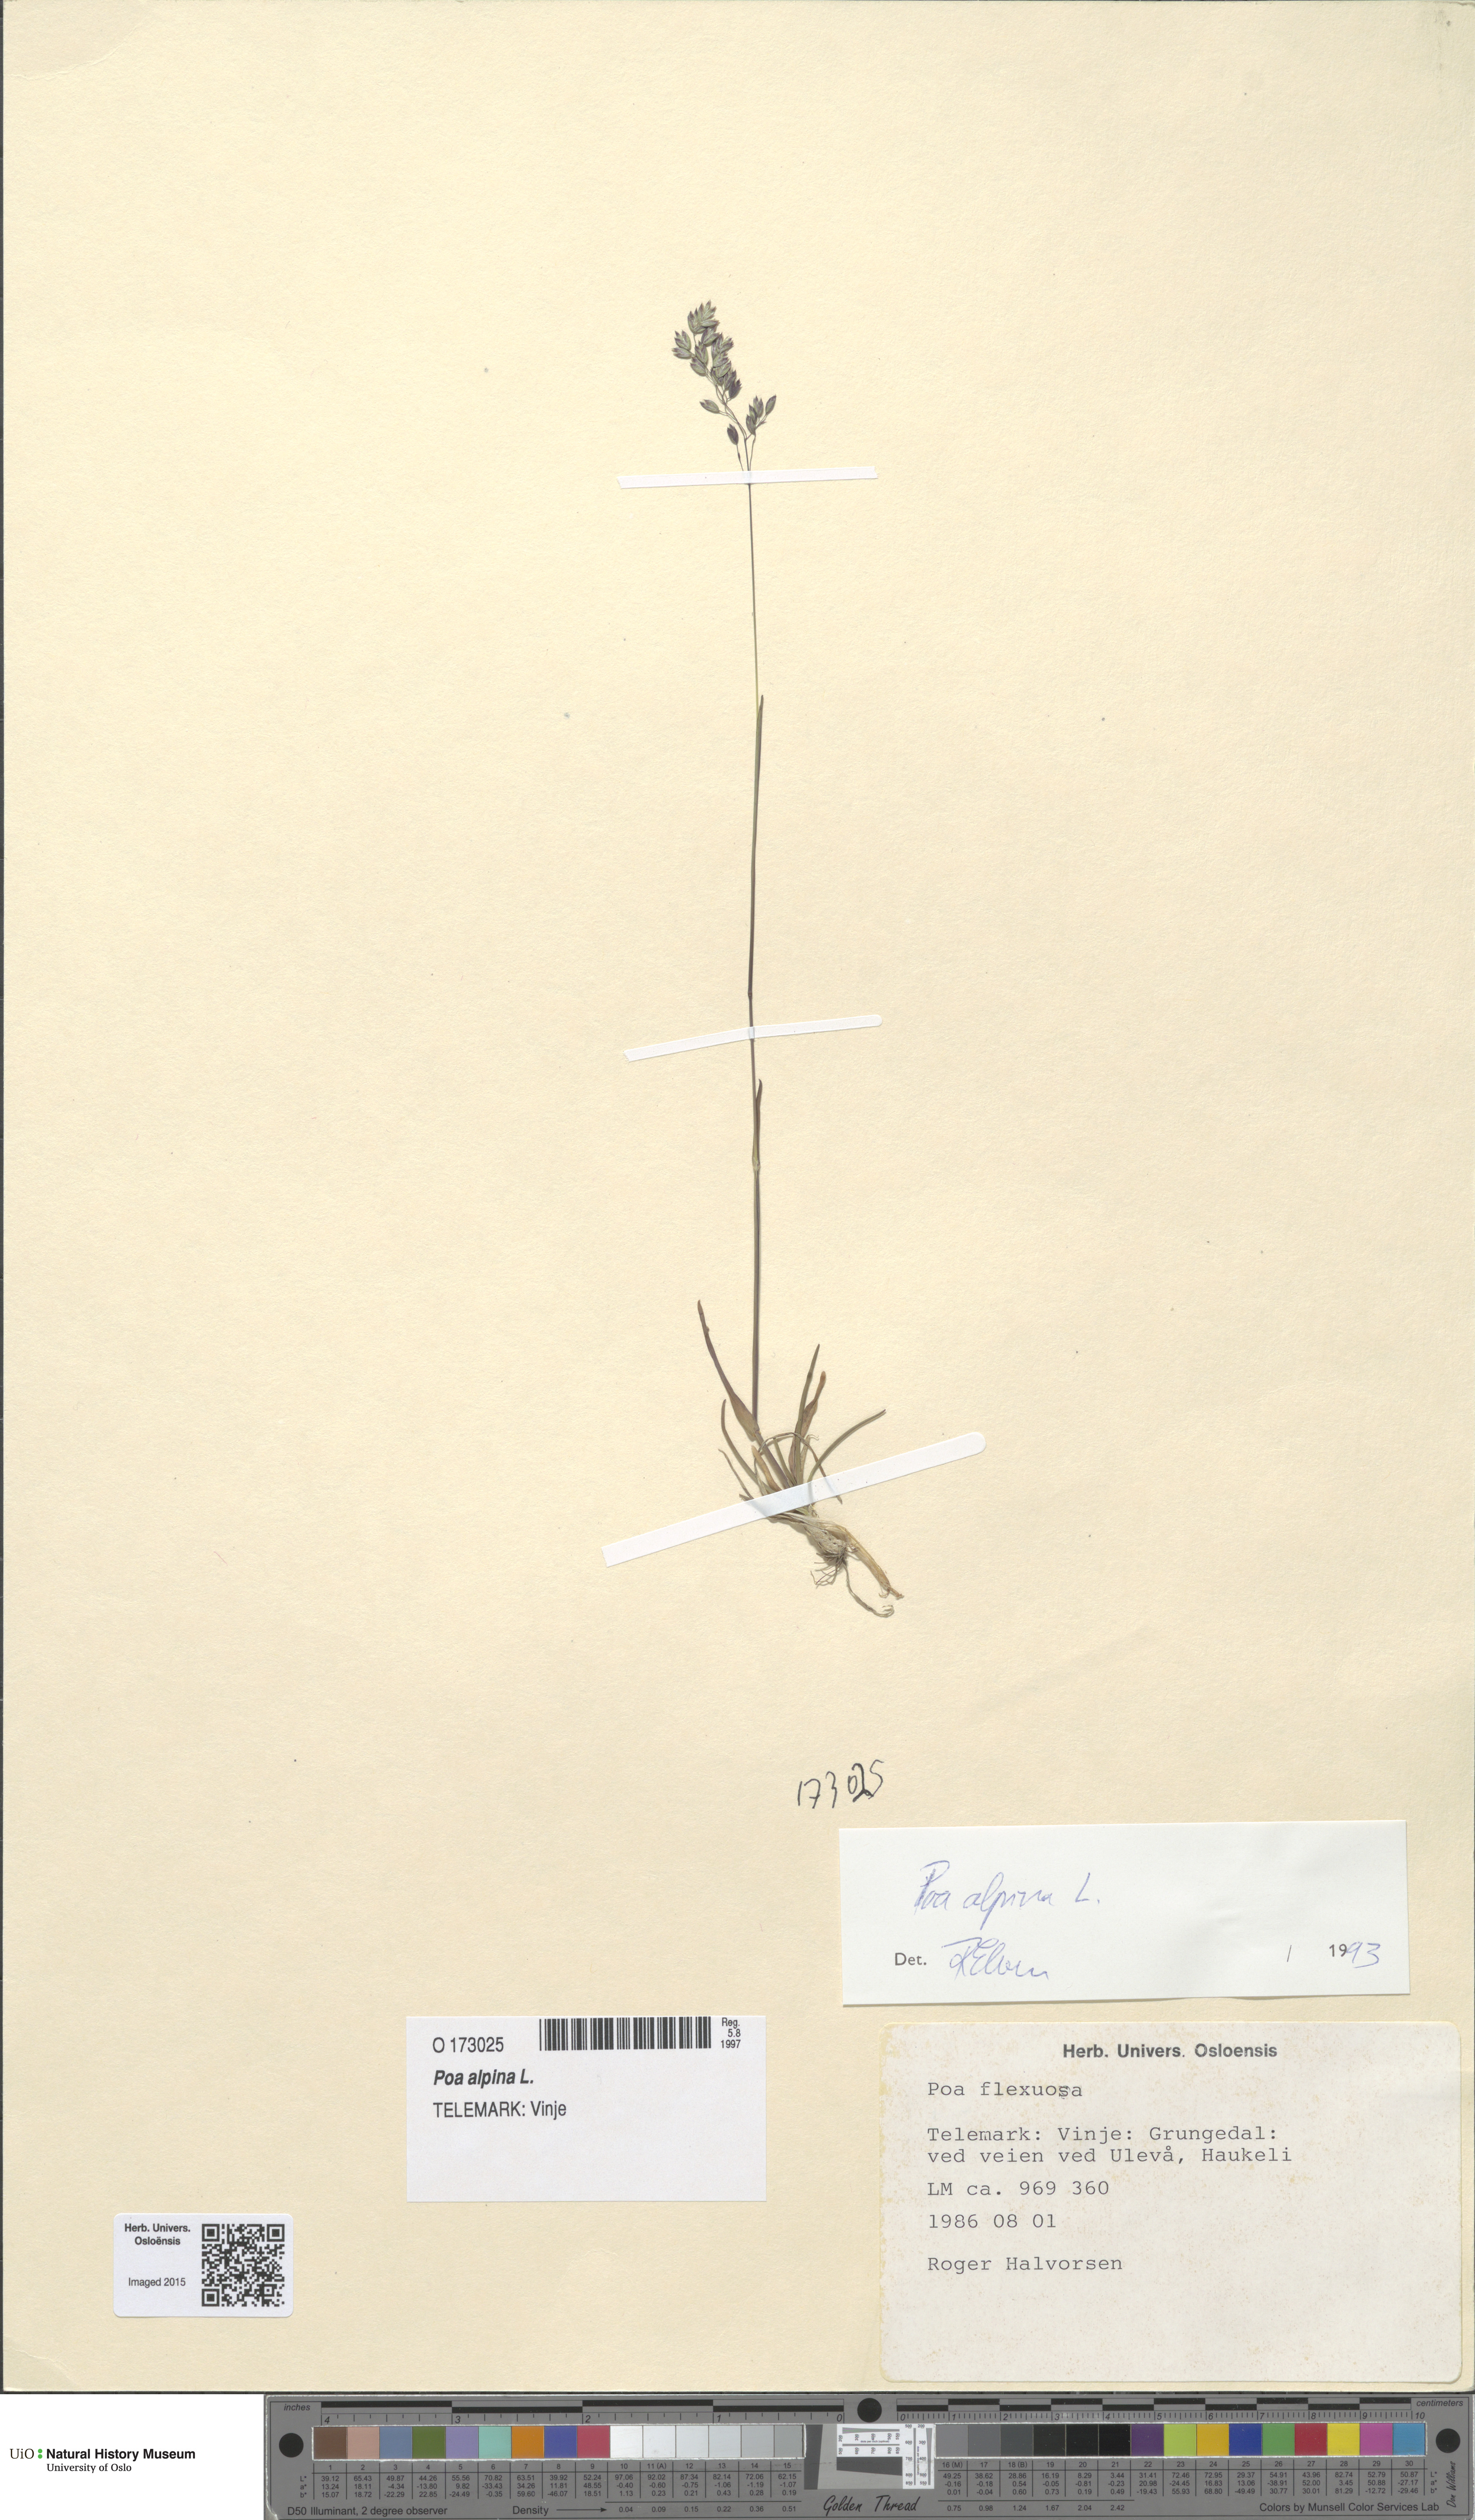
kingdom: Plantae
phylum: Tracheophyta
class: Liliopsida
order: Poales
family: Poaceae
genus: Poa
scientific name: Poa alpina
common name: Alpine bluegrass
